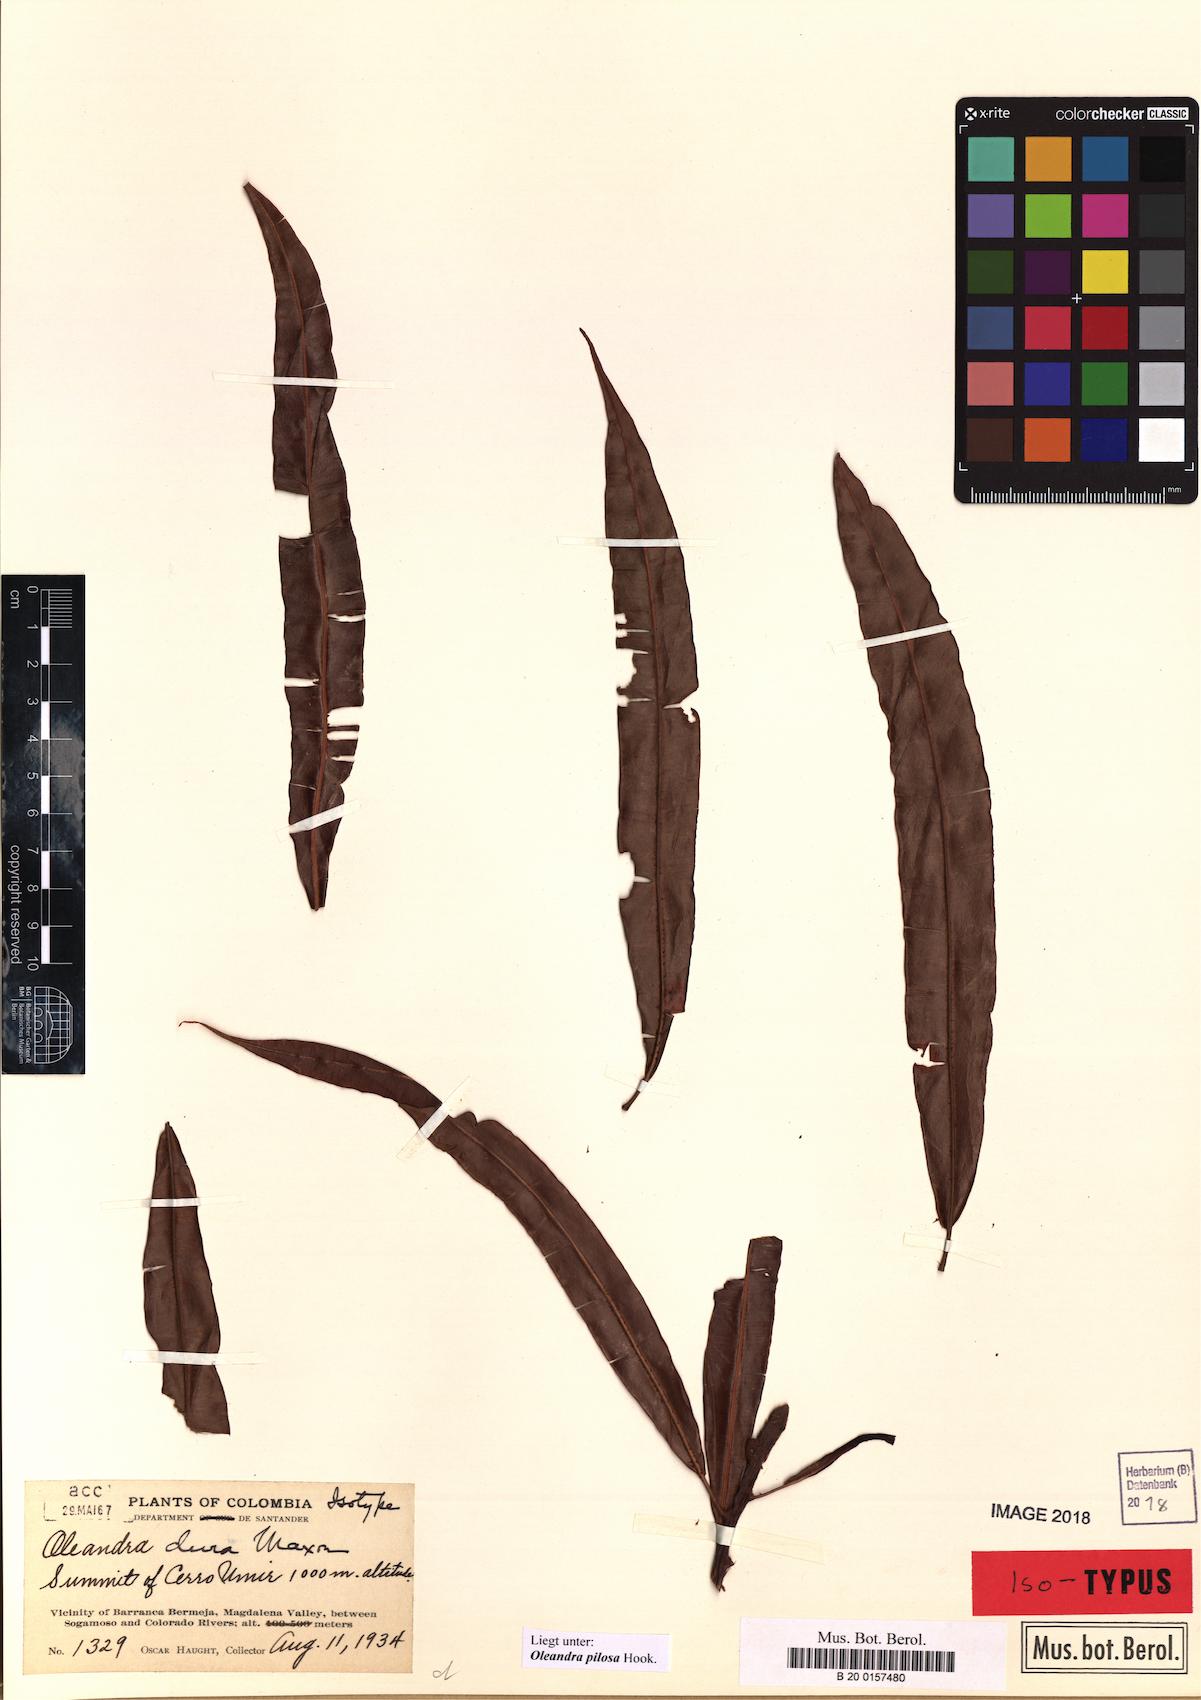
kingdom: Plantae
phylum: Tracheophyta
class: Polypodiopsida
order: Polypodiales
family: Oleandraceae
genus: Oleandra
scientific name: Oleandra pilosa
